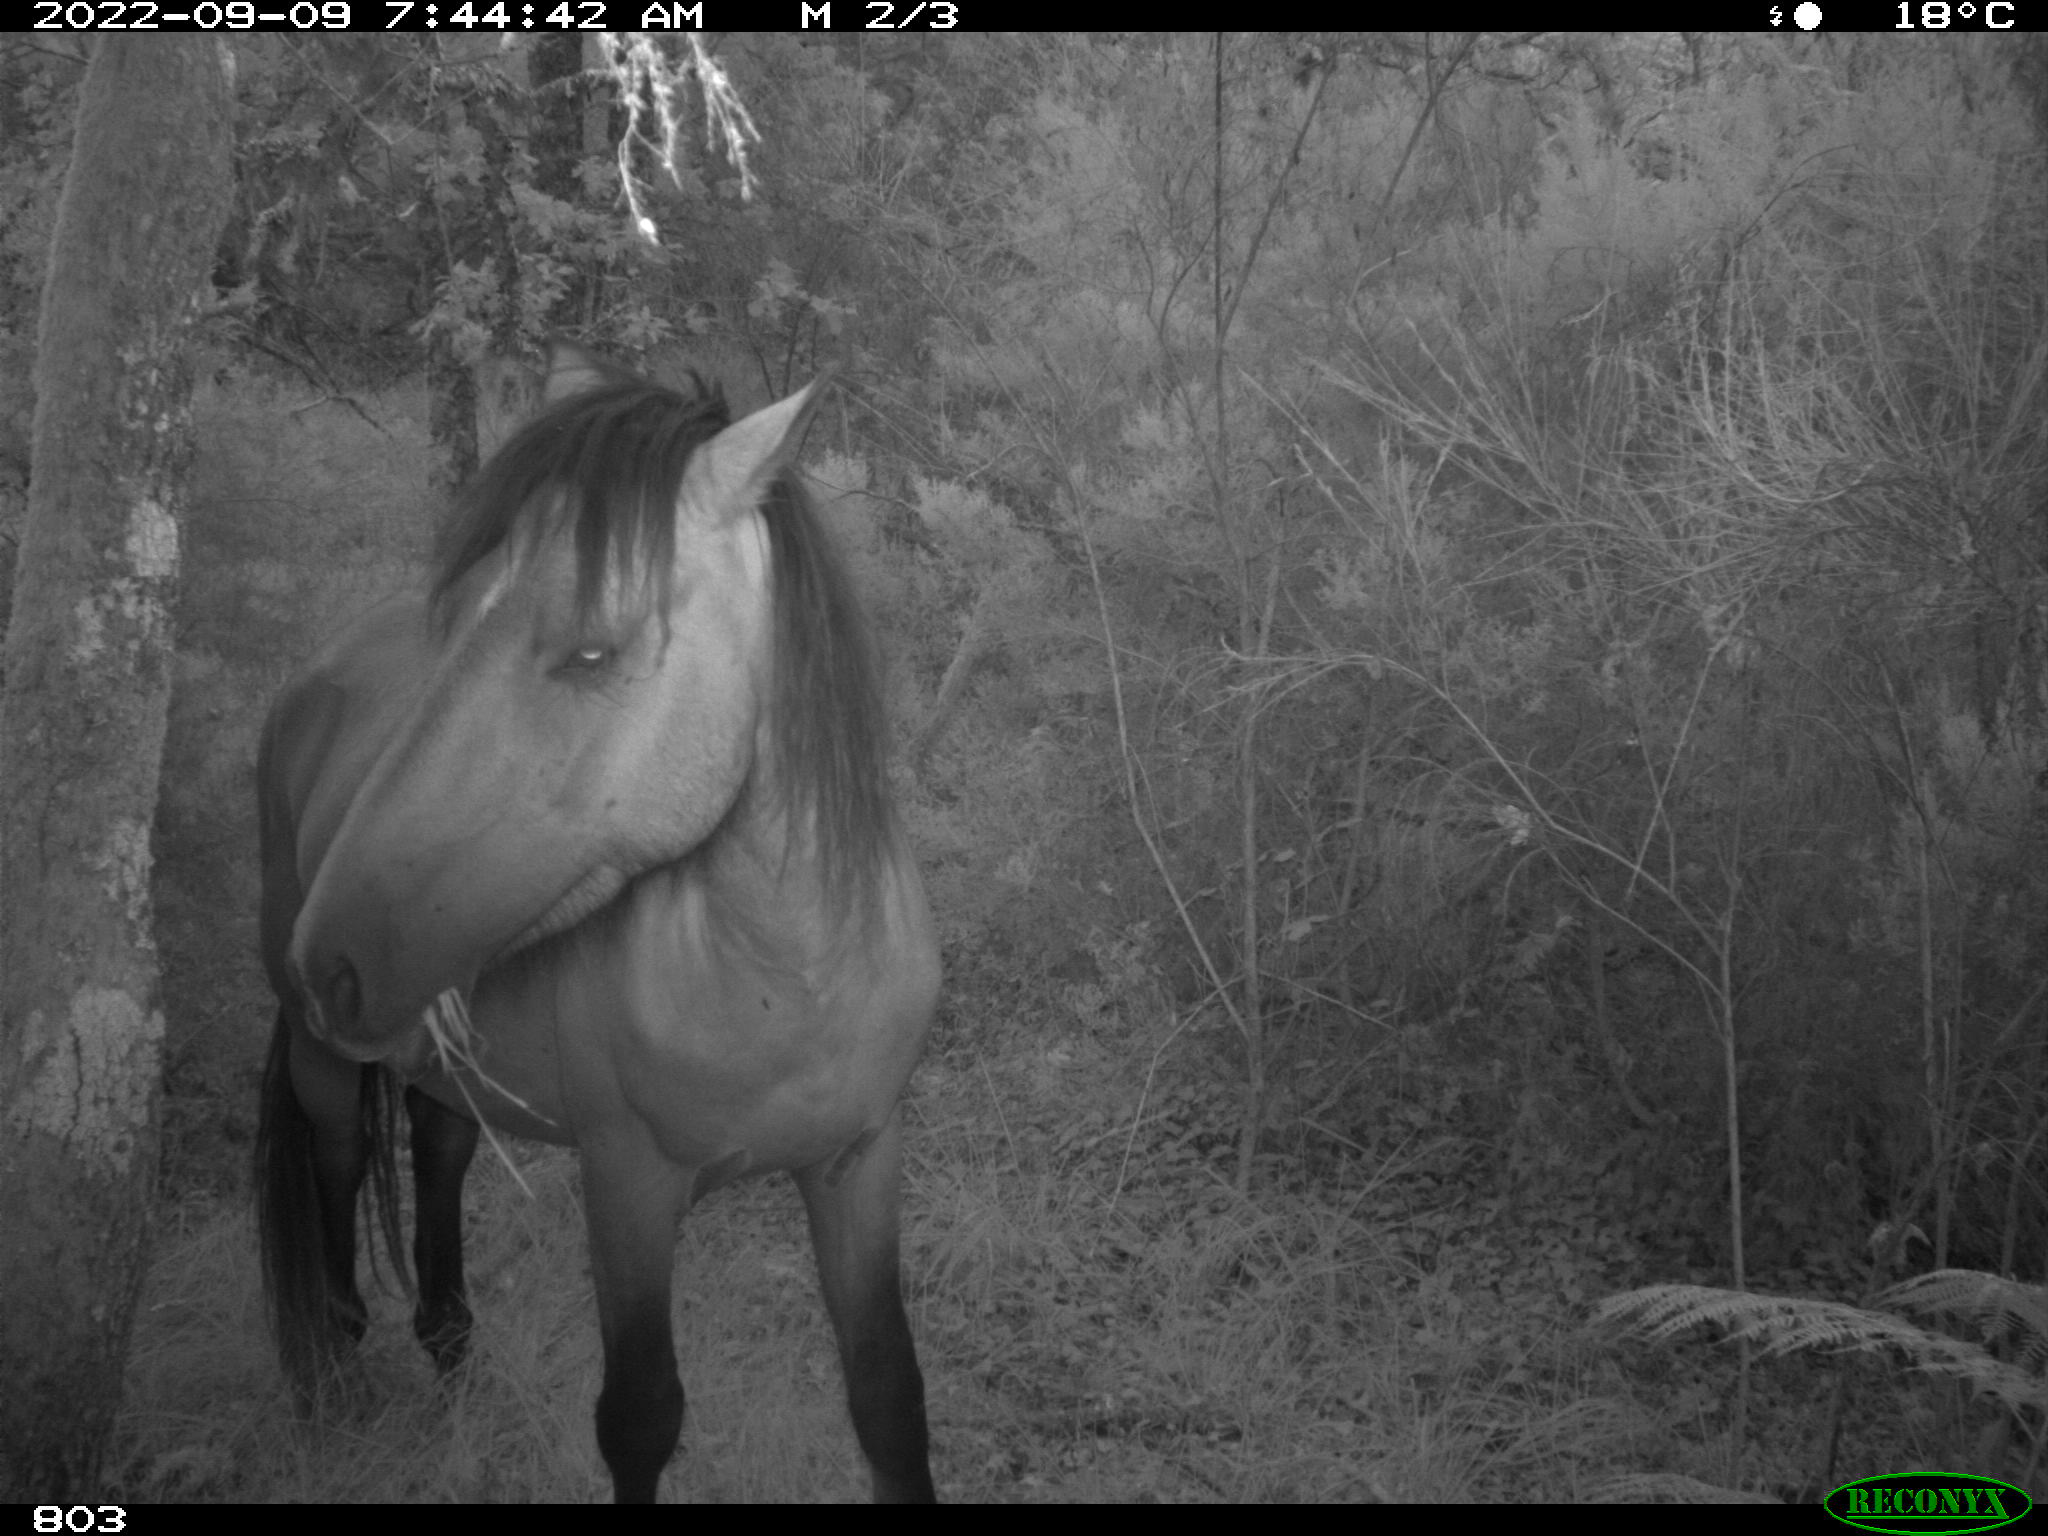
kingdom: Animalia
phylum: Chordata
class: Mammalia
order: Perissodactyla
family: Equidae
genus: Equus
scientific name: Equus caballus
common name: Horse
